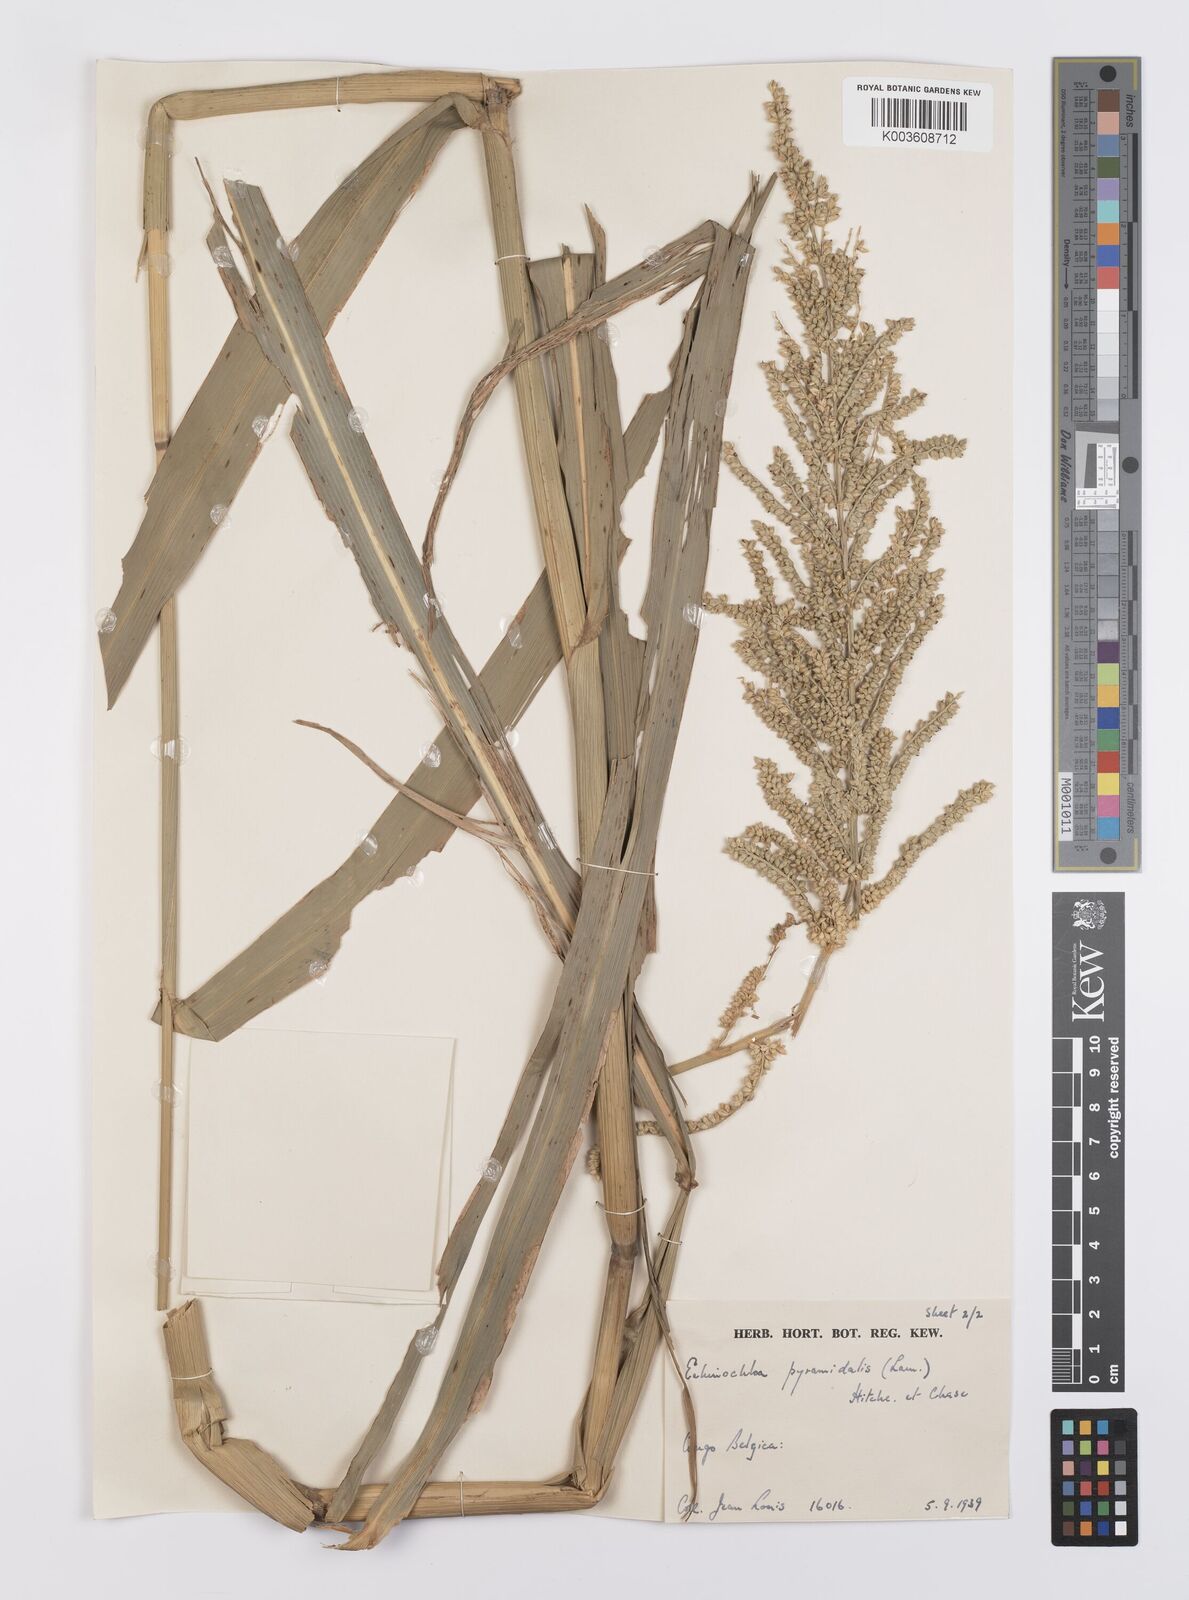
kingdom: Plantae
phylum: Tracheophyta
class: Liliopsida
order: Poales
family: Poaceae
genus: Echinochloa
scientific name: Echinochloa pyramidalis
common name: Antelope grass
